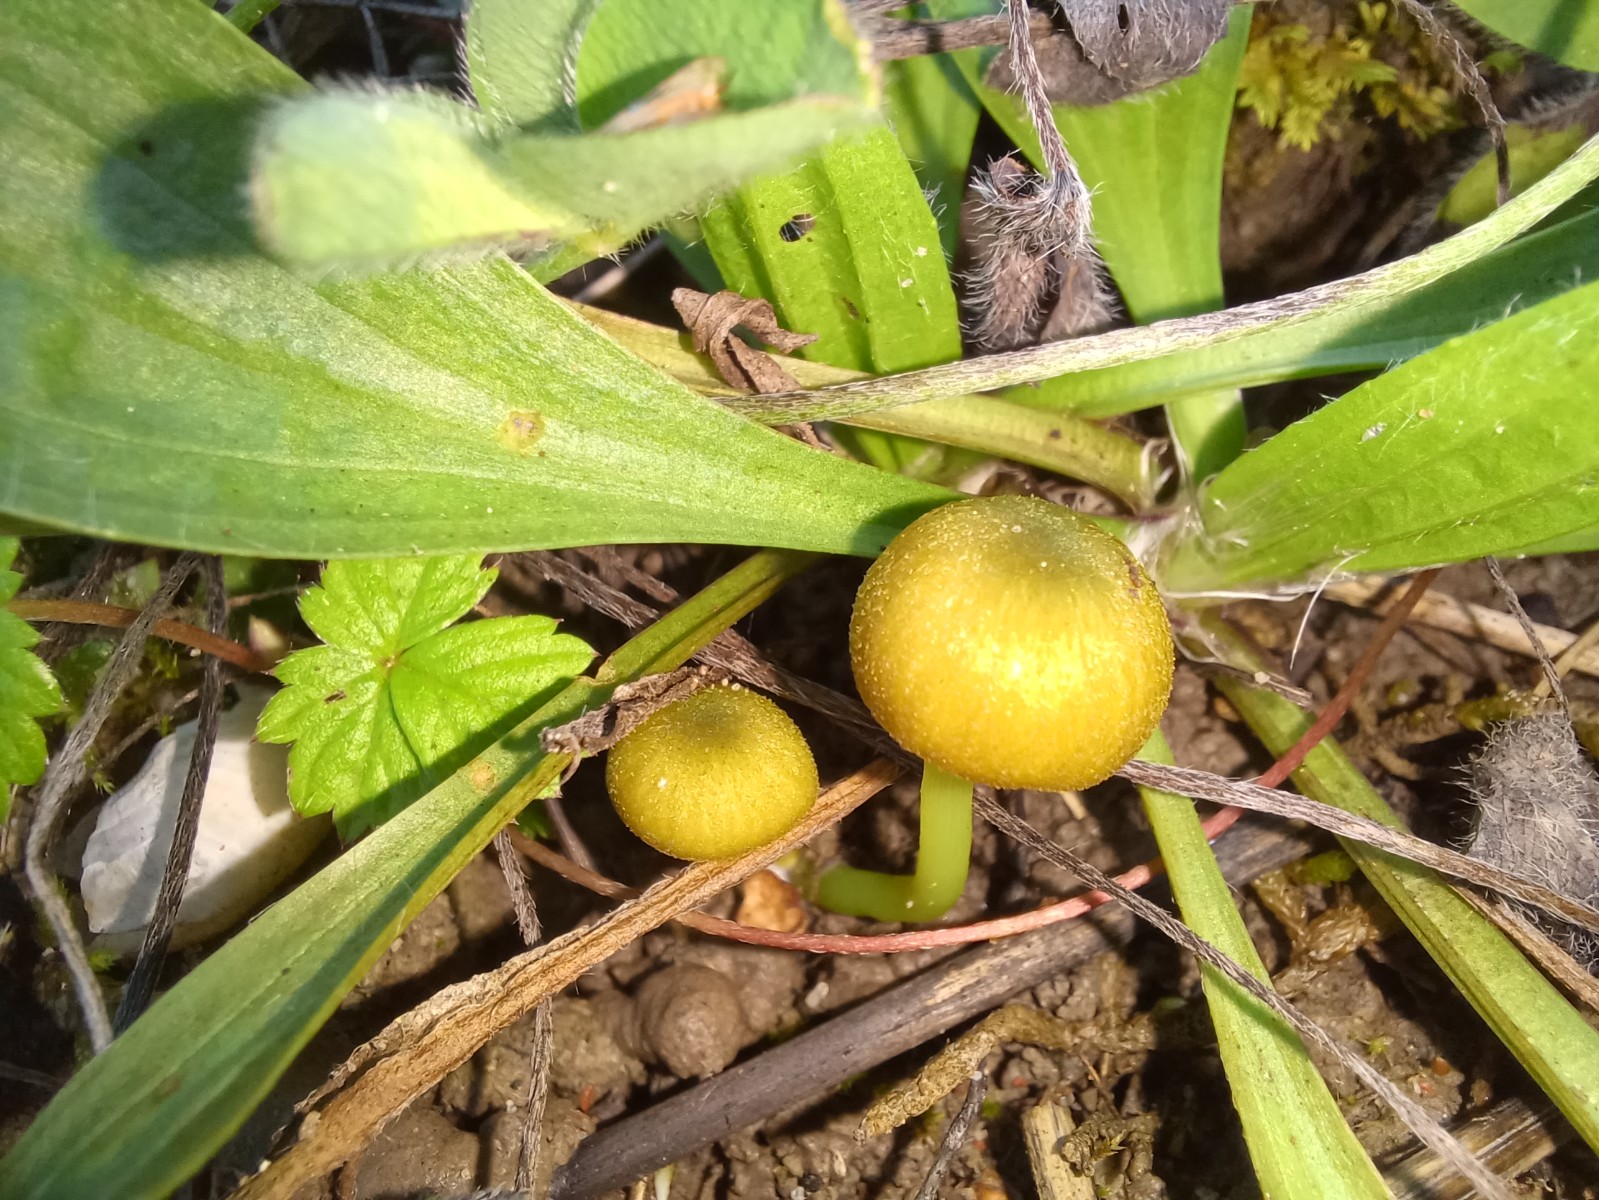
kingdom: Fungi
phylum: Basidiomycota
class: Agaricomycetes
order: Agaricales
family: Entolomataceae
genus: Entoloma
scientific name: Entoloma incanum
